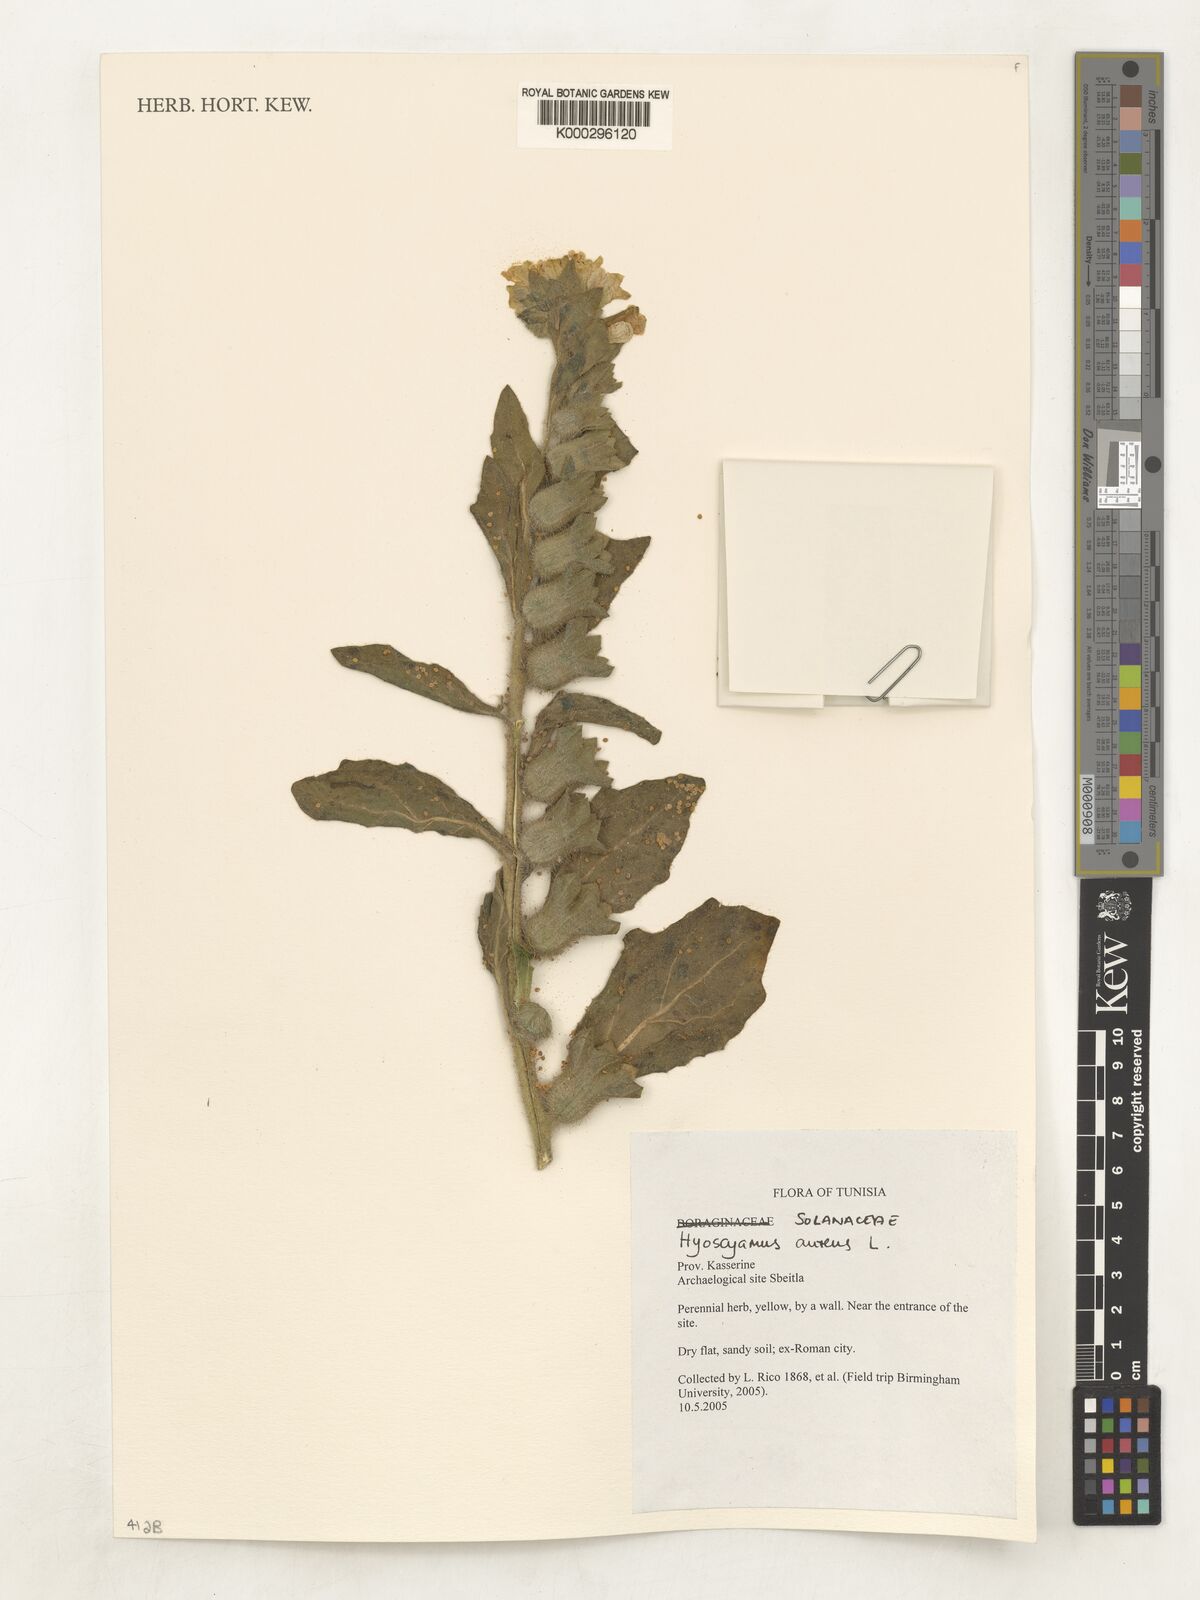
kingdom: Plantae
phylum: Tracheophyta
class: Magnoliopsida
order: Solanales
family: Solanaceae
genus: Hyoscyamus
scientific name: Hyoscyamus aureus
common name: Golden henbane
